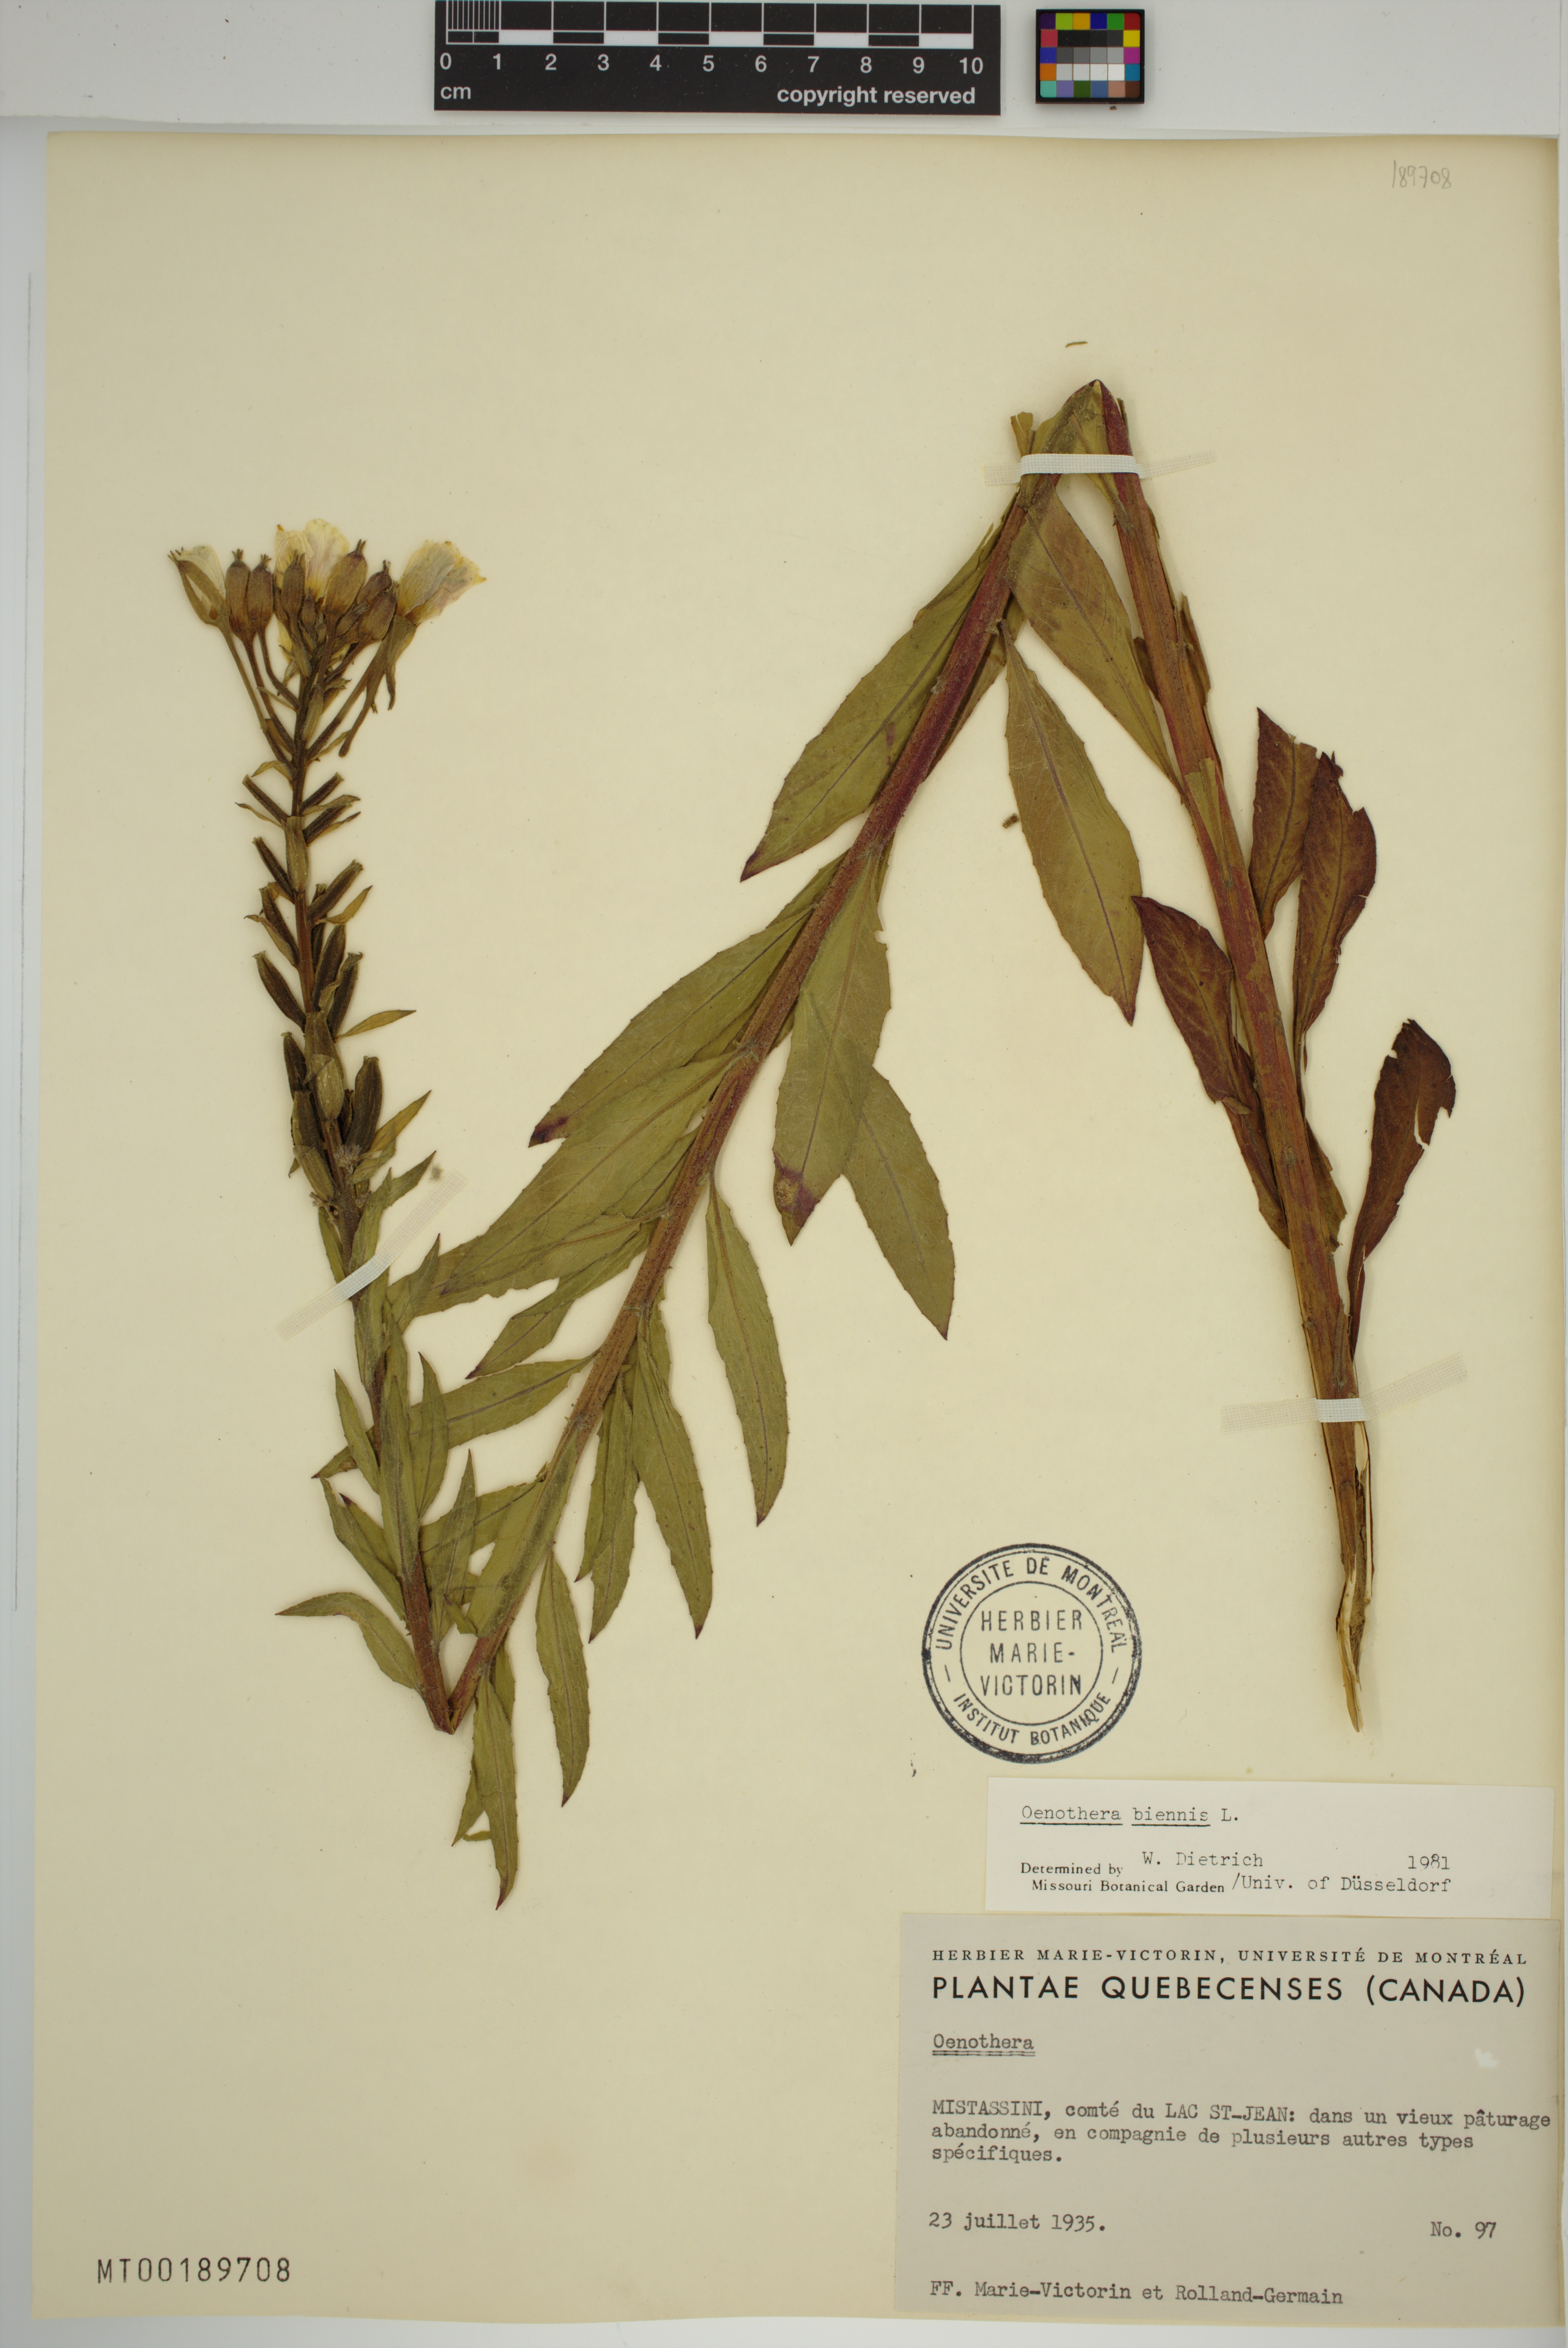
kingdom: Plantae
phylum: Tracheophyta
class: Magnoliopsida
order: Myrtales
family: Onagraceae
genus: Oenothera
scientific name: Oenothera biennis
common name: Common evening-primrose
